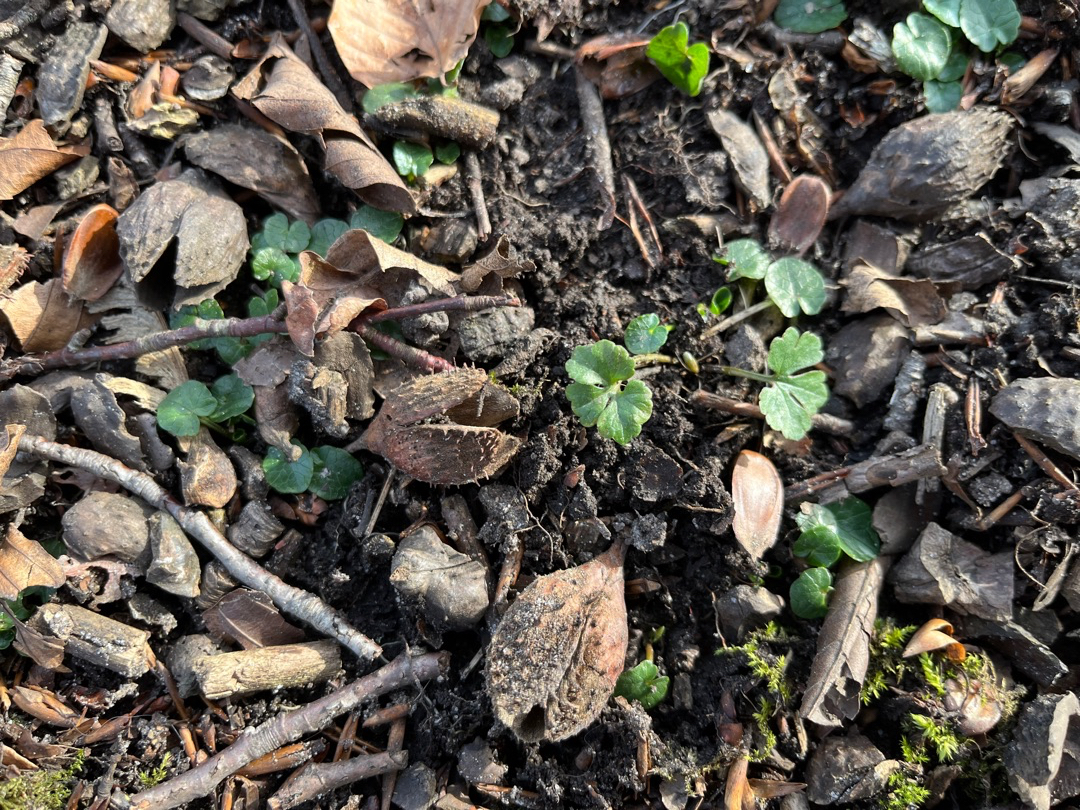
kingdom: Plantae
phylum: Tracheophyta
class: Magnoliopsida
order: Ranunculales
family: Ranunculaceae
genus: Ranunculus
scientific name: Ranunculus auricomus
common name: Nyrebladet ranunkel
